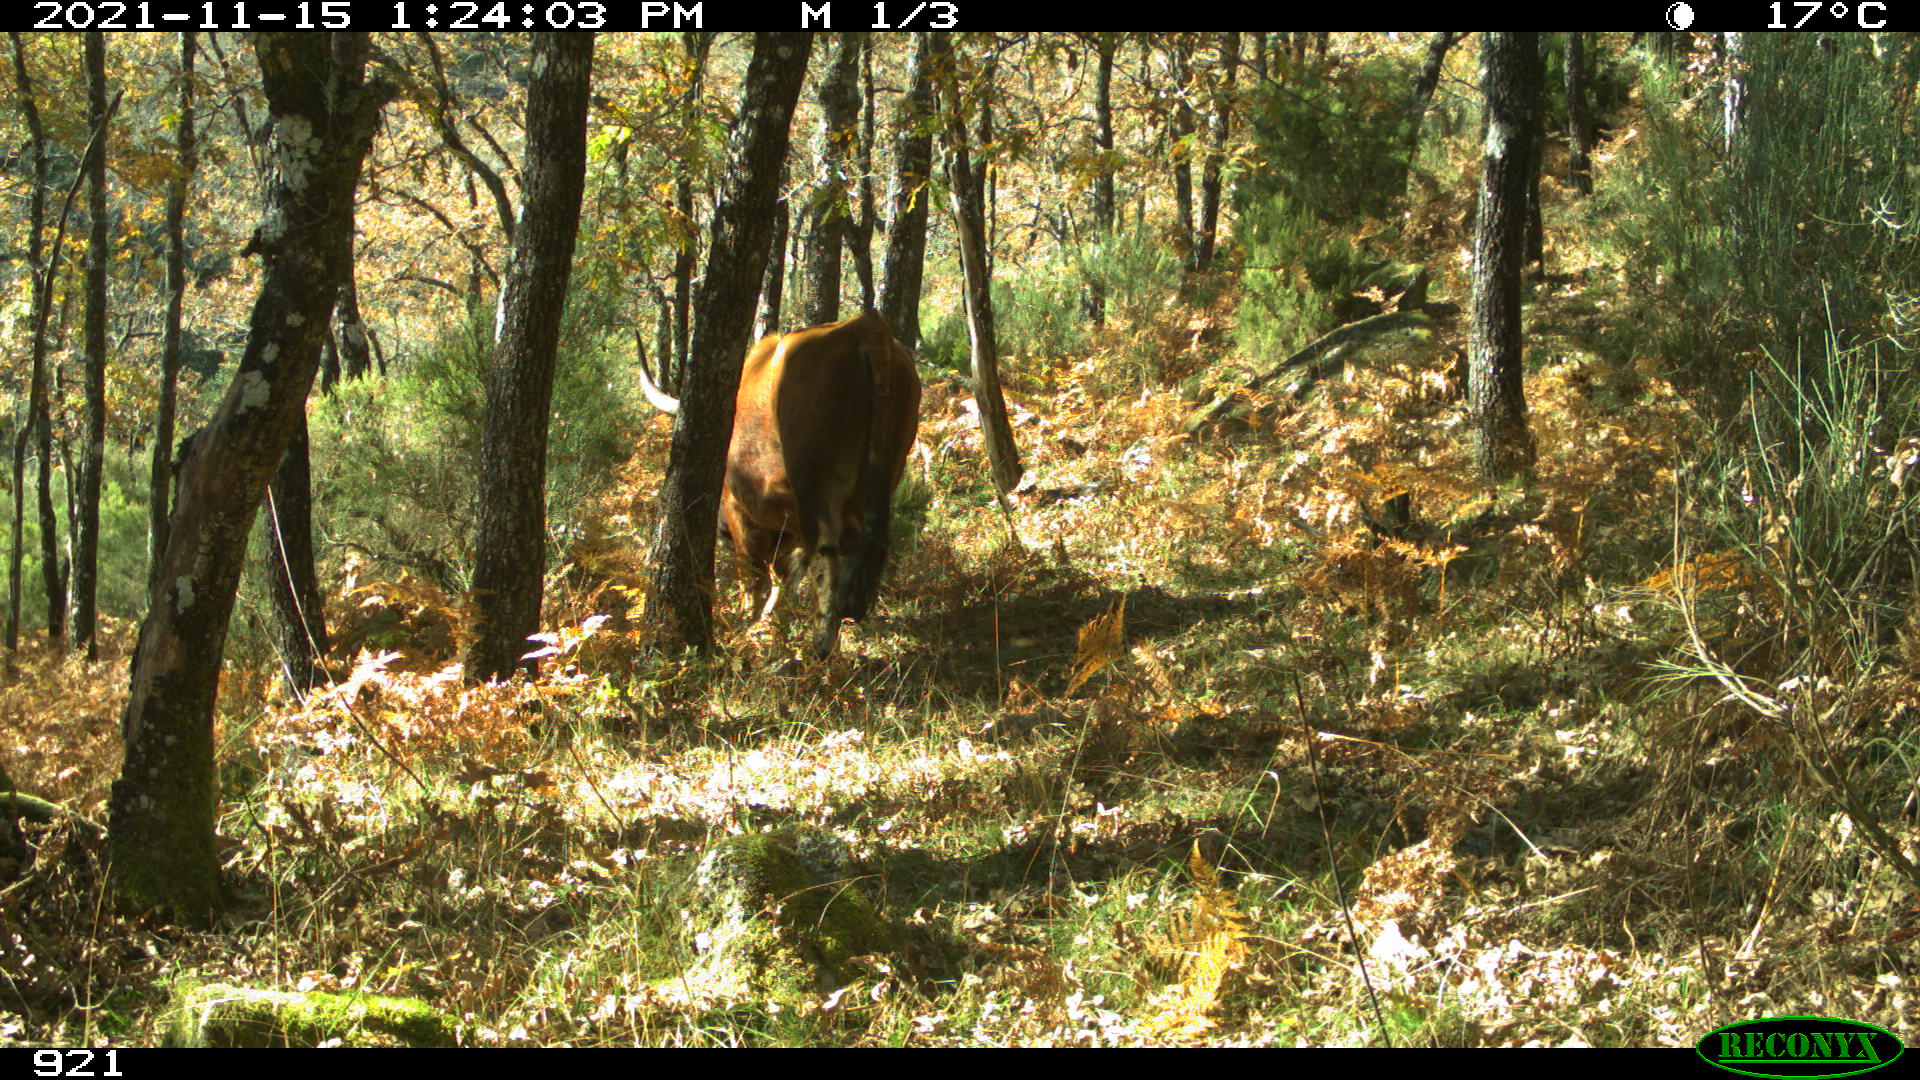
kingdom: Animalia
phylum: Chordata
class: Mammalia
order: Artiodactyla
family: Bovidae
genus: Bos
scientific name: Bos taurus
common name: Domesticated cattle
